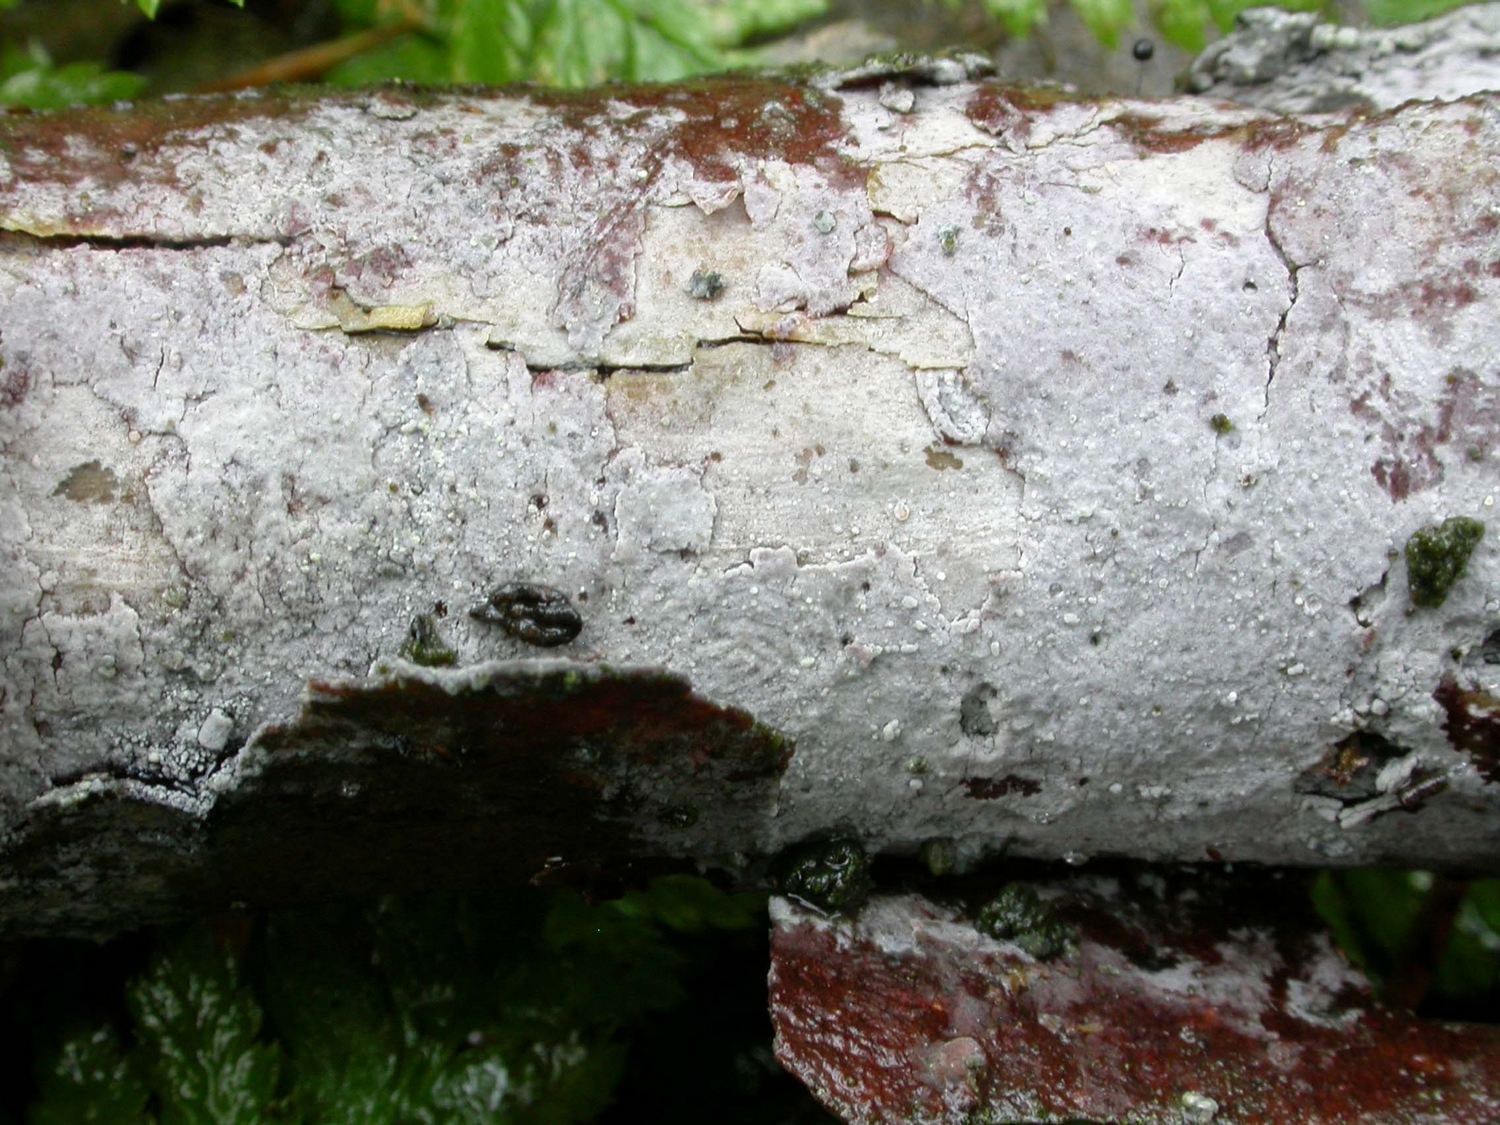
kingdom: Fungi
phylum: Basidiomycota
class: Agaricomycetes
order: Cantharellales
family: Hydnaceae
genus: Sistotrema
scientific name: Sistotrema brinkmannii
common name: bønnesporet kroneskorpe
